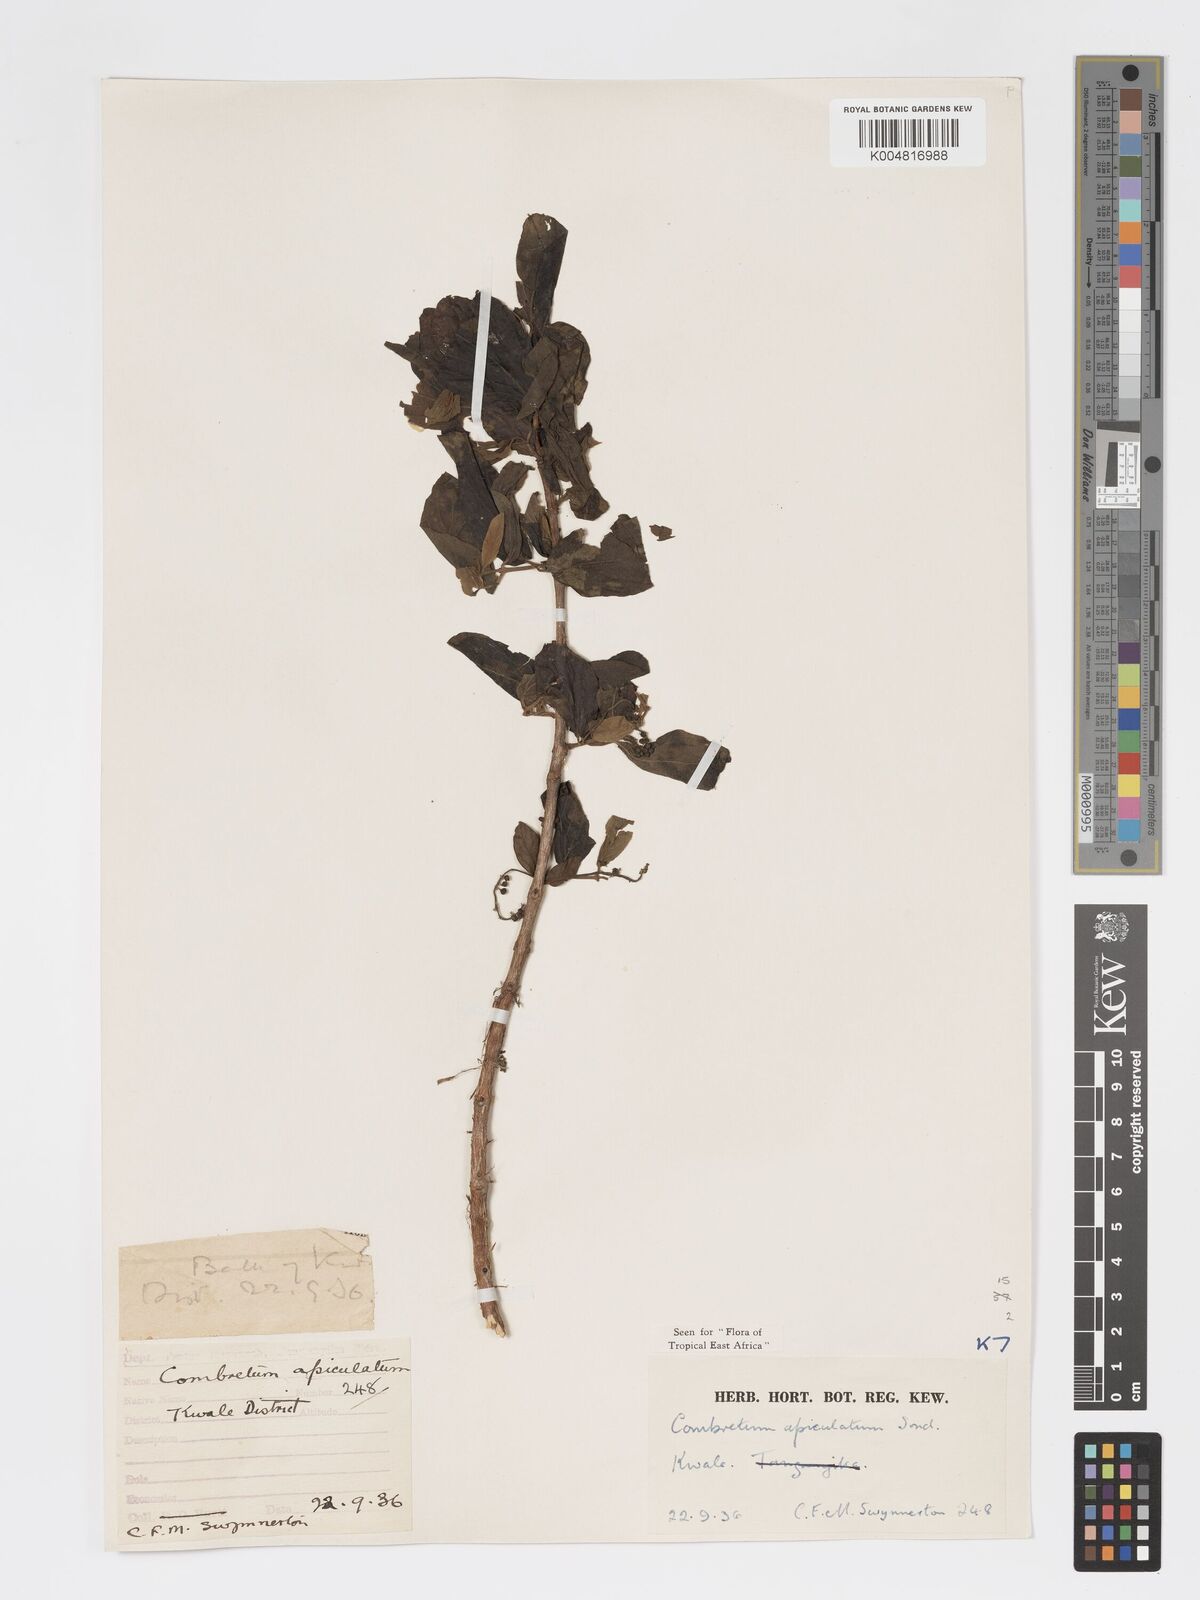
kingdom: Plantae
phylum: Tracheophyta
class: Magnoliopsida
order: Myrtales
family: Combretaceae
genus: Combretum
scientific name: Combretum apiculatum
